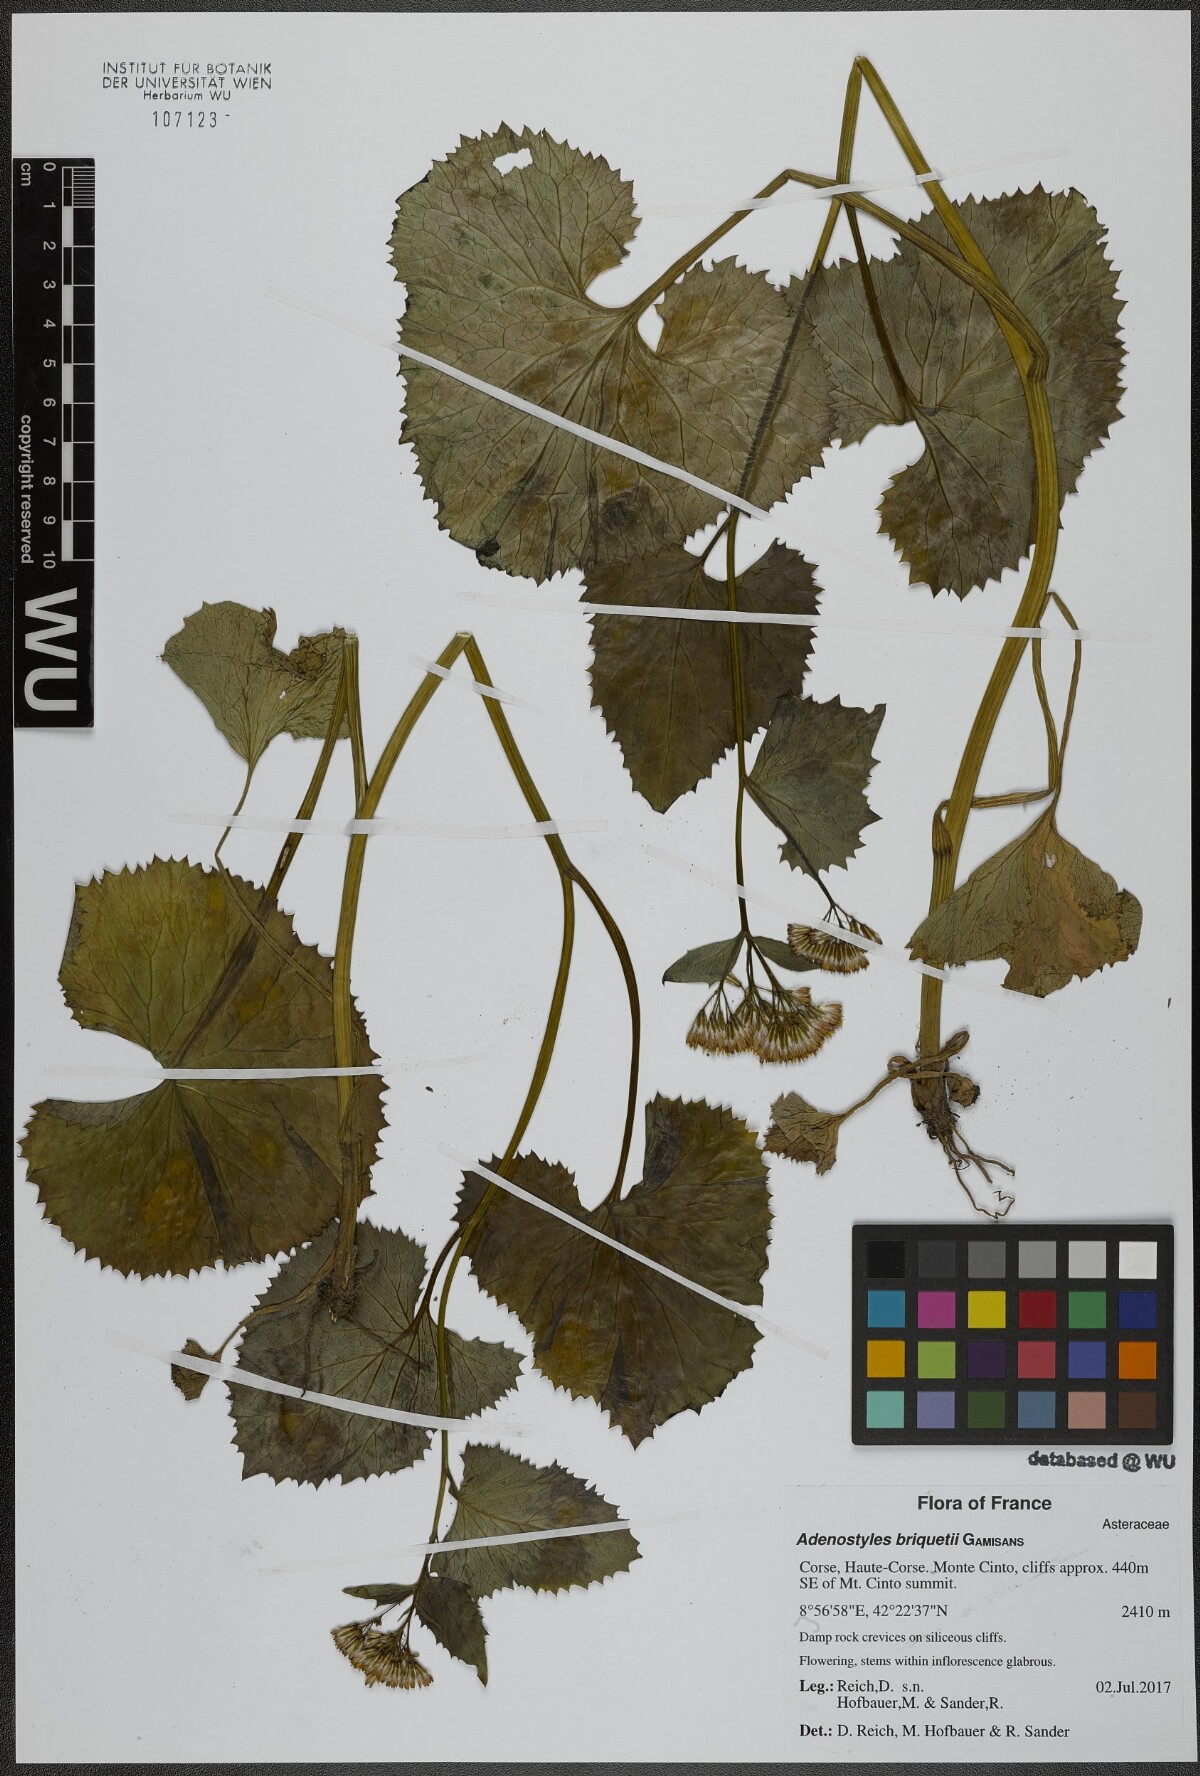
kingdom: Plantae
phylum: Tracheophyta
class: Magnoliopsida
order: Asterales
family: Asteraceae
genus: Adenostyles
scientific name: Adenostyles briquetii
